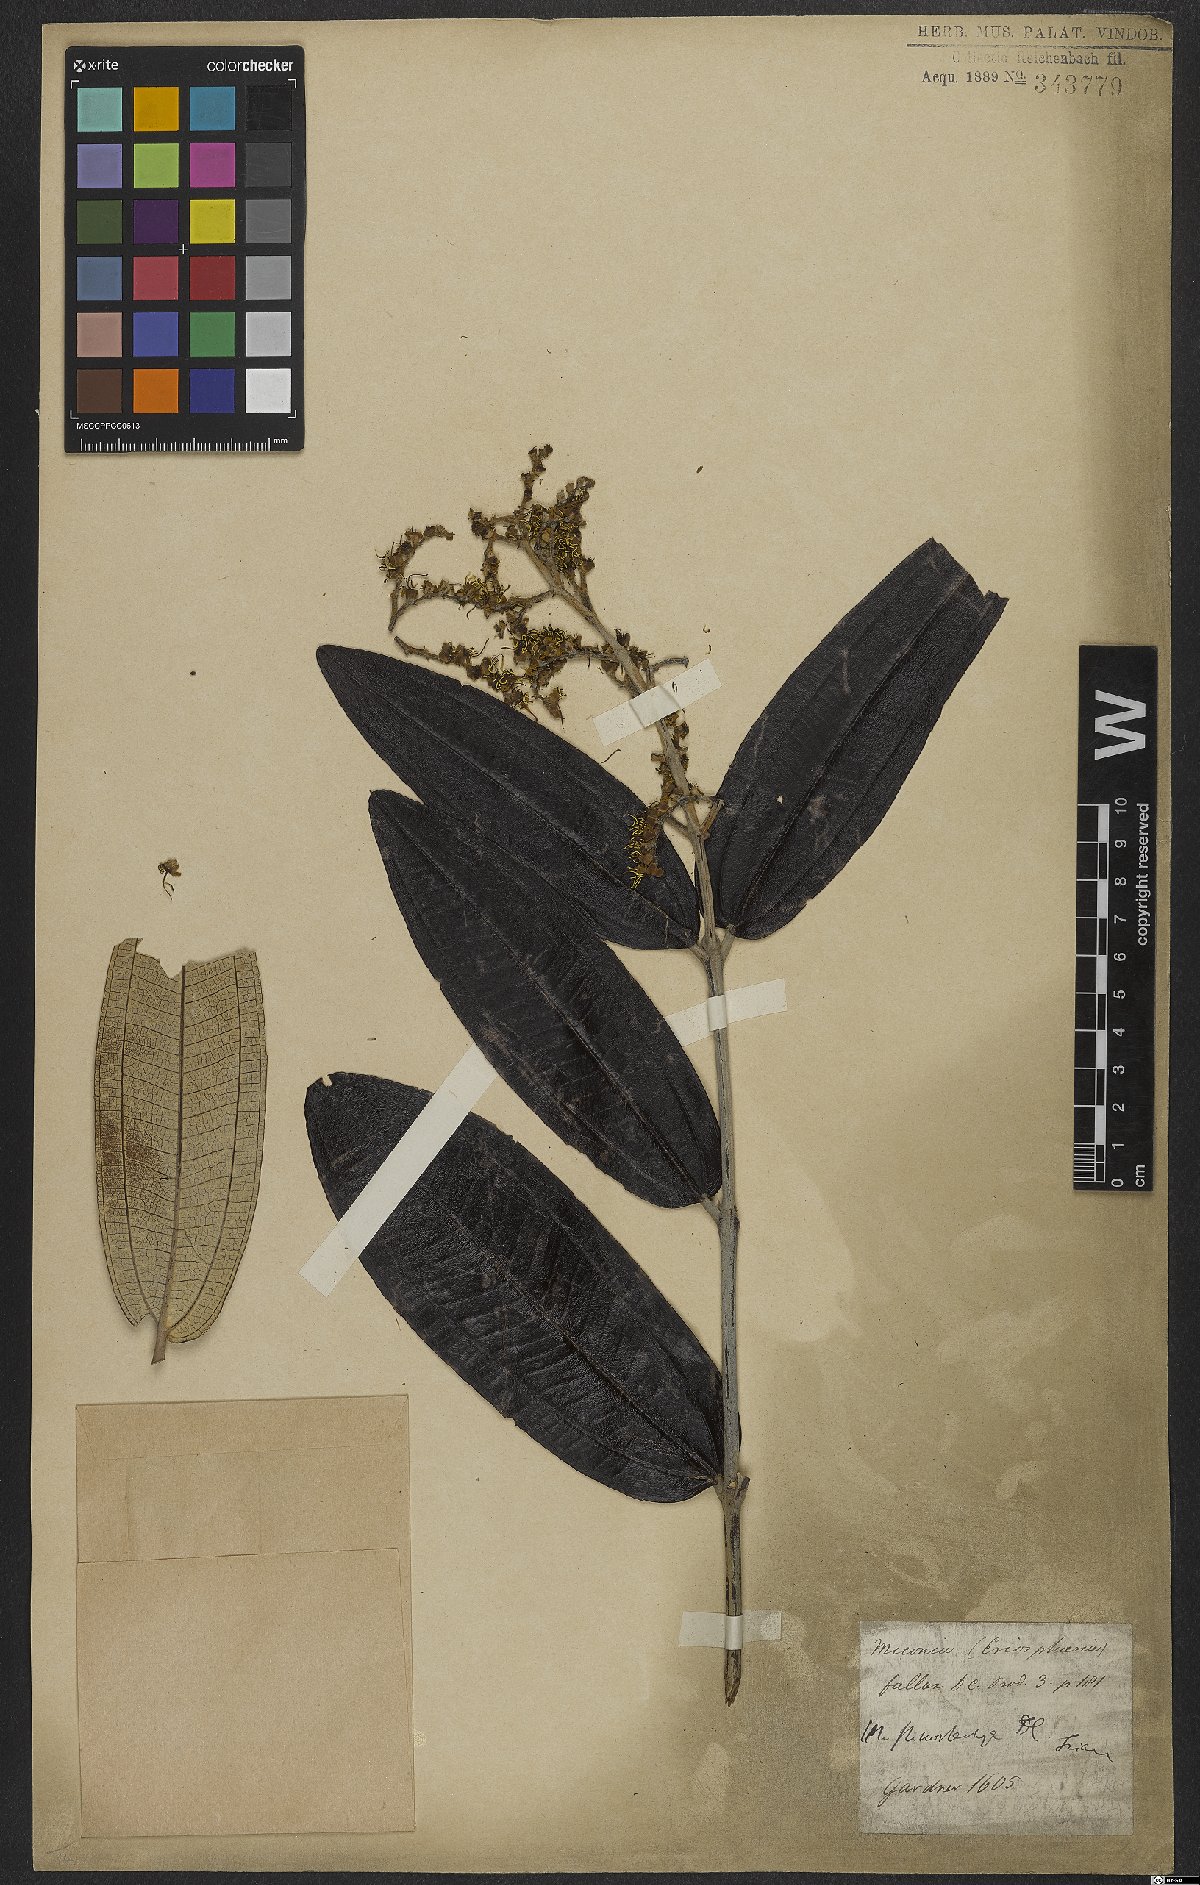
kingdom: Plantae
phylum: Tracheophyta
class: Magnoliopsida
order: Myrtales
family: Melastomataceae
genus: Miconia
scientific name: Miconia stenostachya
